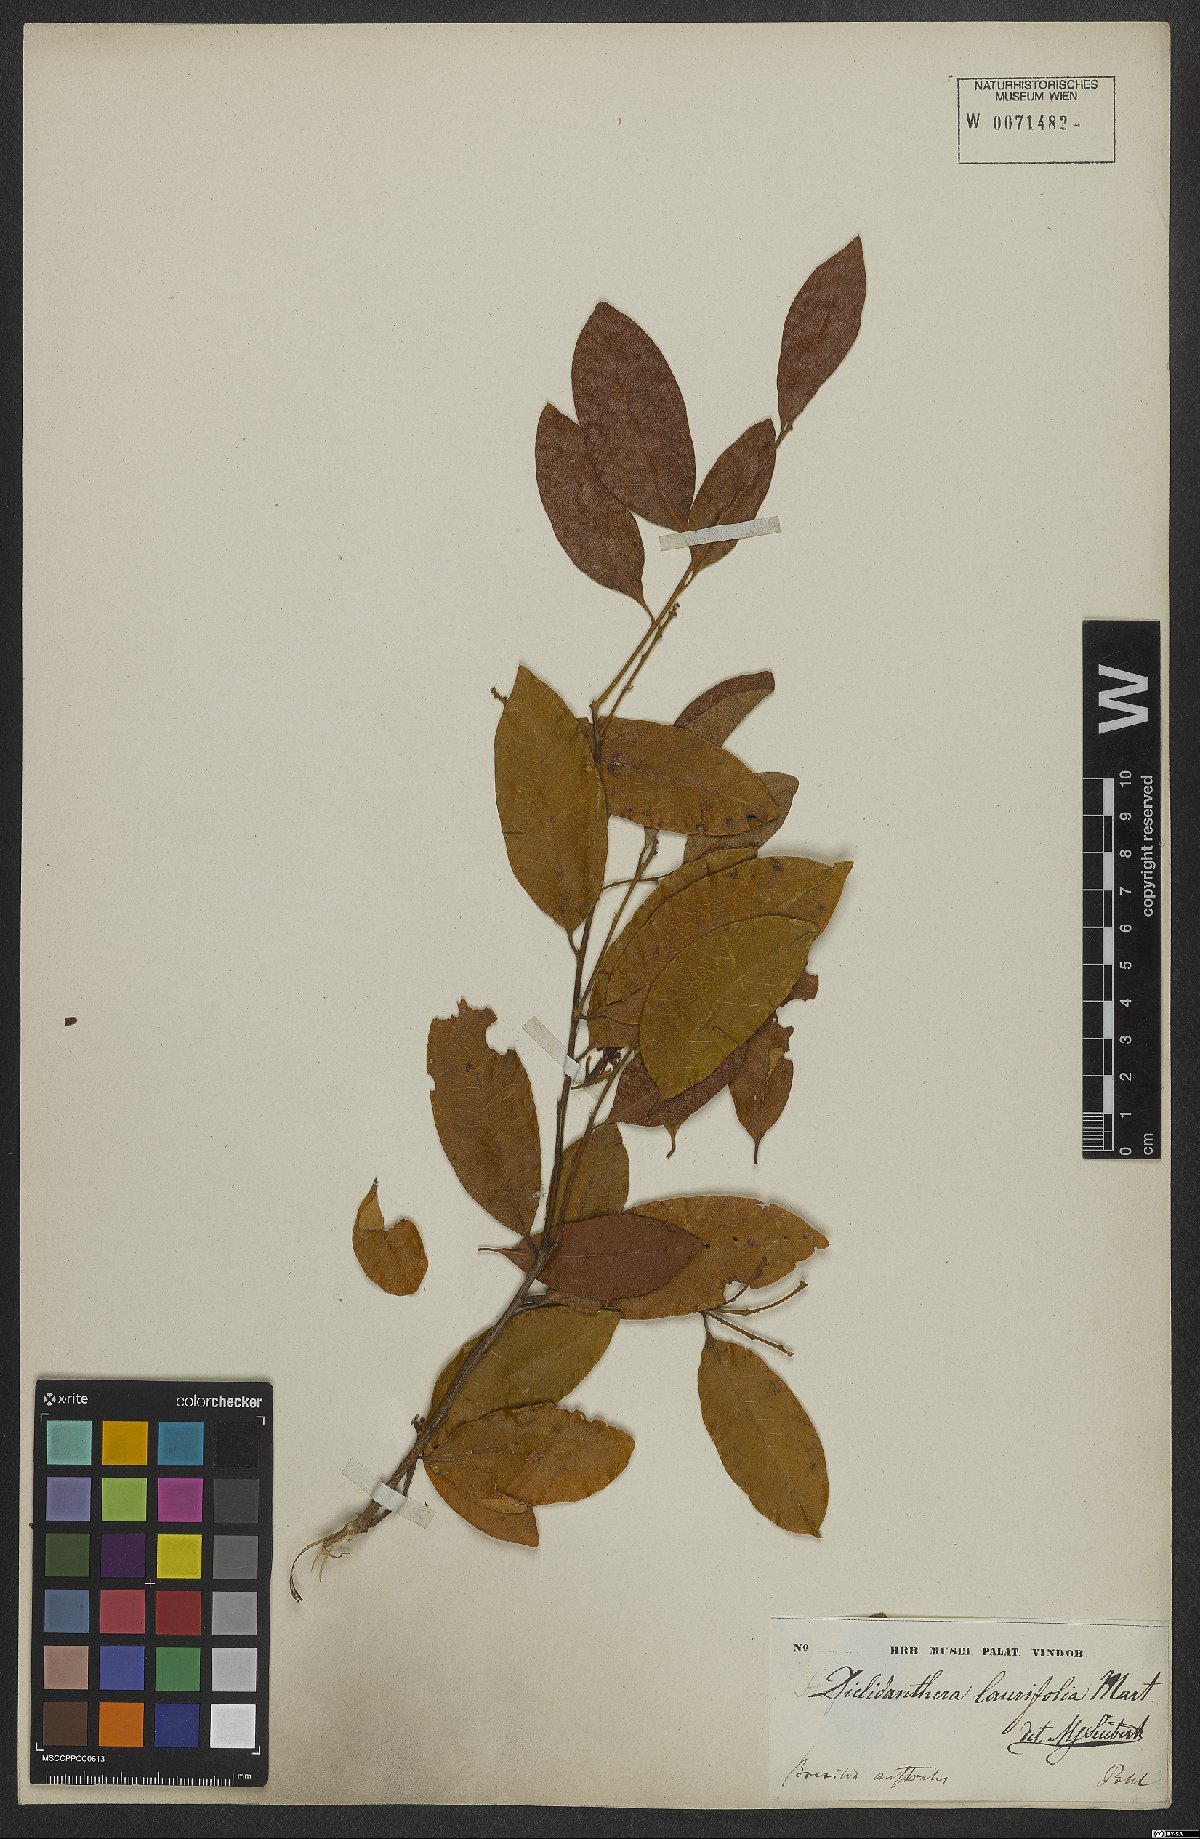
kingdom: Plantae
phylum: Tracheophyta
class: Magnoliopsida
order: Fabales
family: Polygalaceae
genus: Diclidanthera
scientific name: Diclidanthera laurifolia
